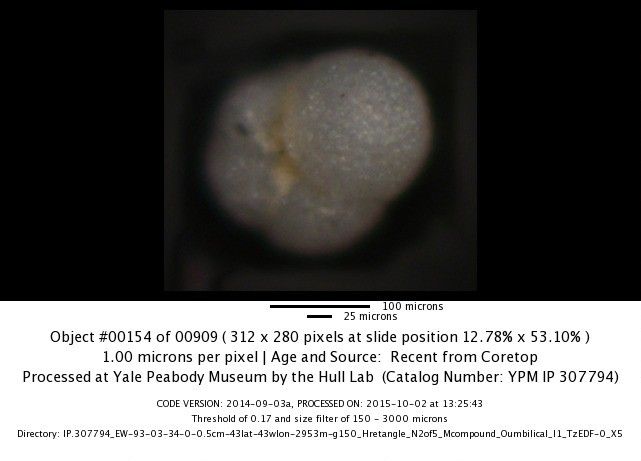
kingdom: Chromista
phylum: Foraminifera
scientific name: Foraminifera
